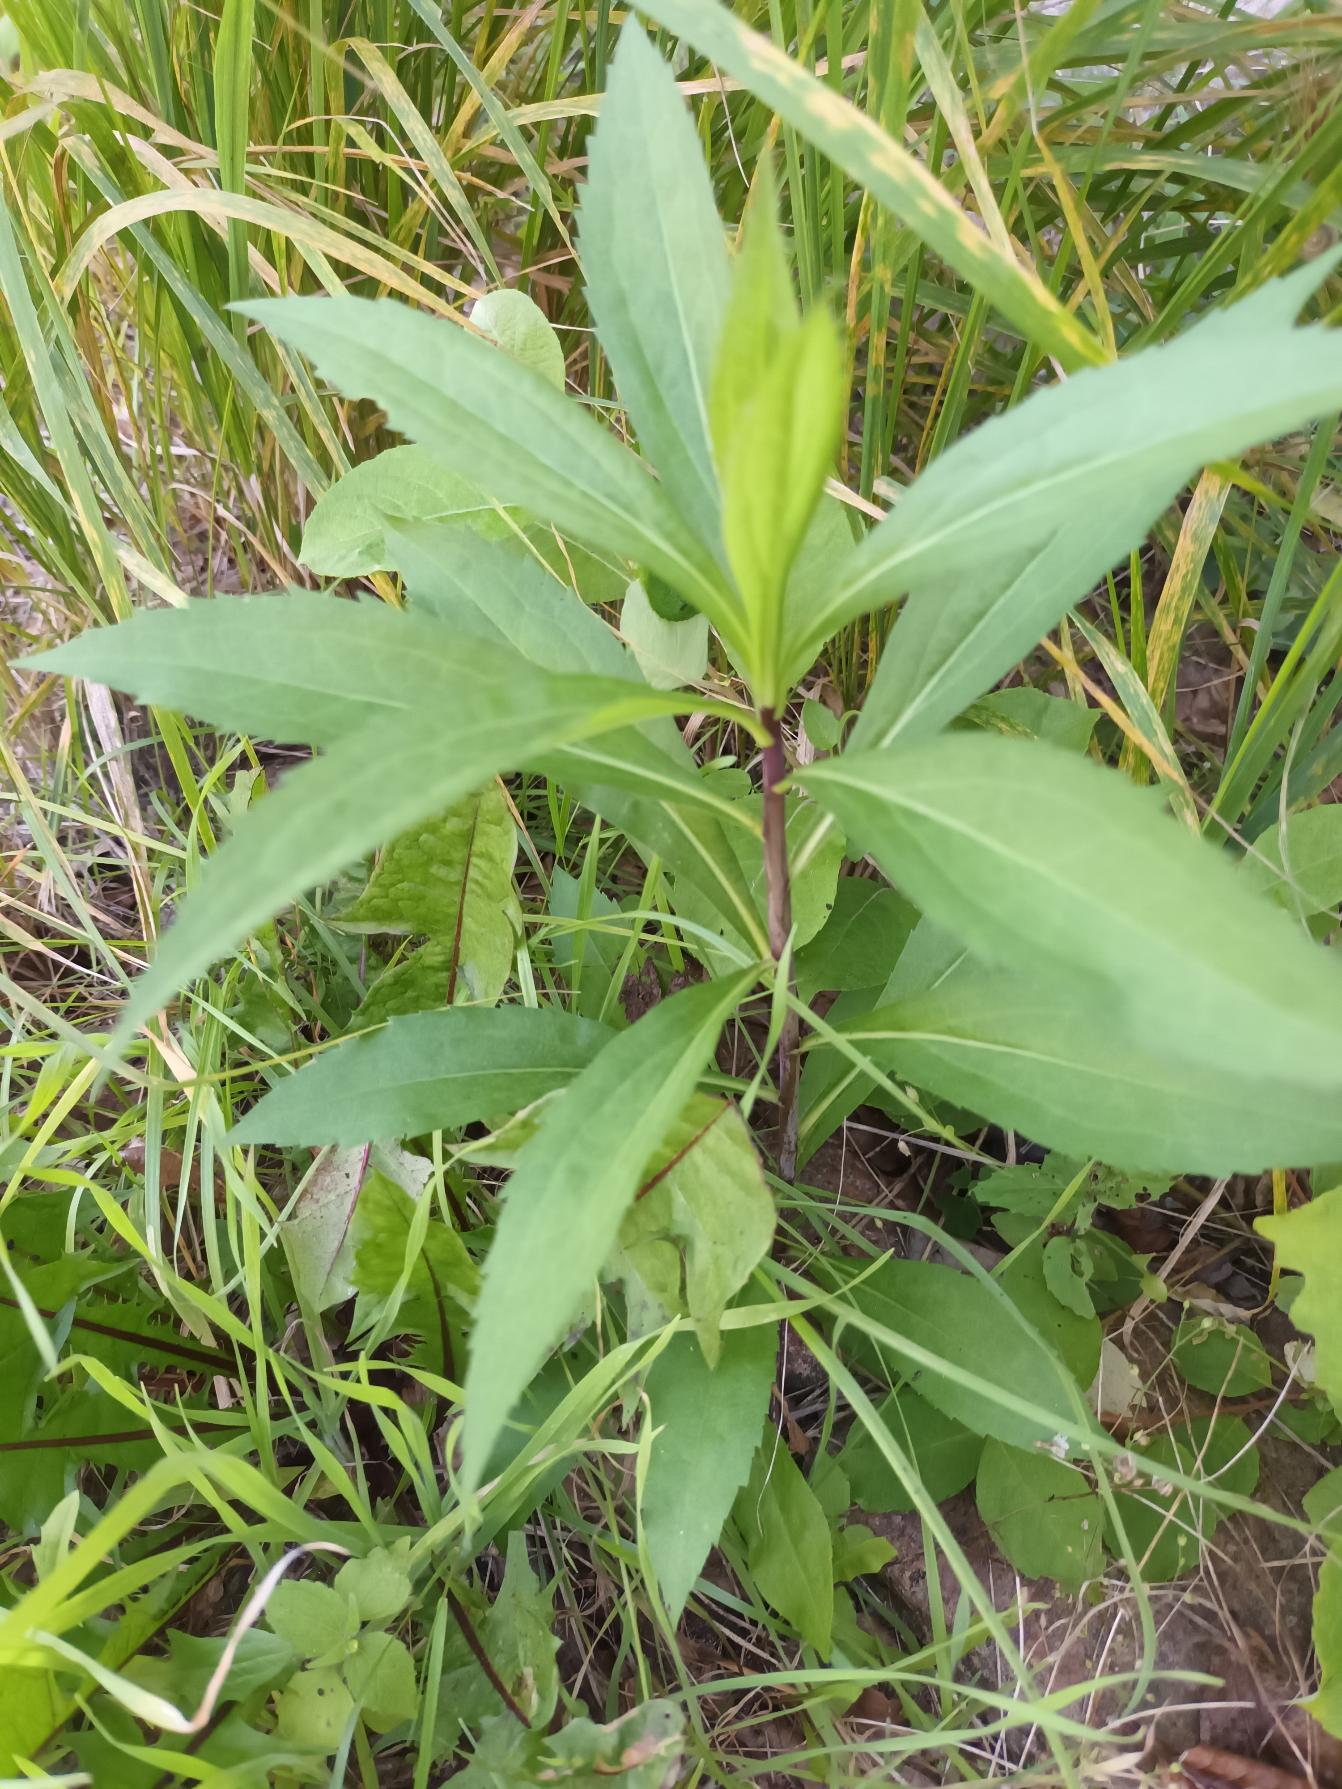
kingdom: Plantae
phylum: Tracheophyta
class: Magnoliopsida
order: Asterales
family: Asteraceae
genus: Solidago
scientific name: Solidago gigantea
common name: Sildig gyldenris
